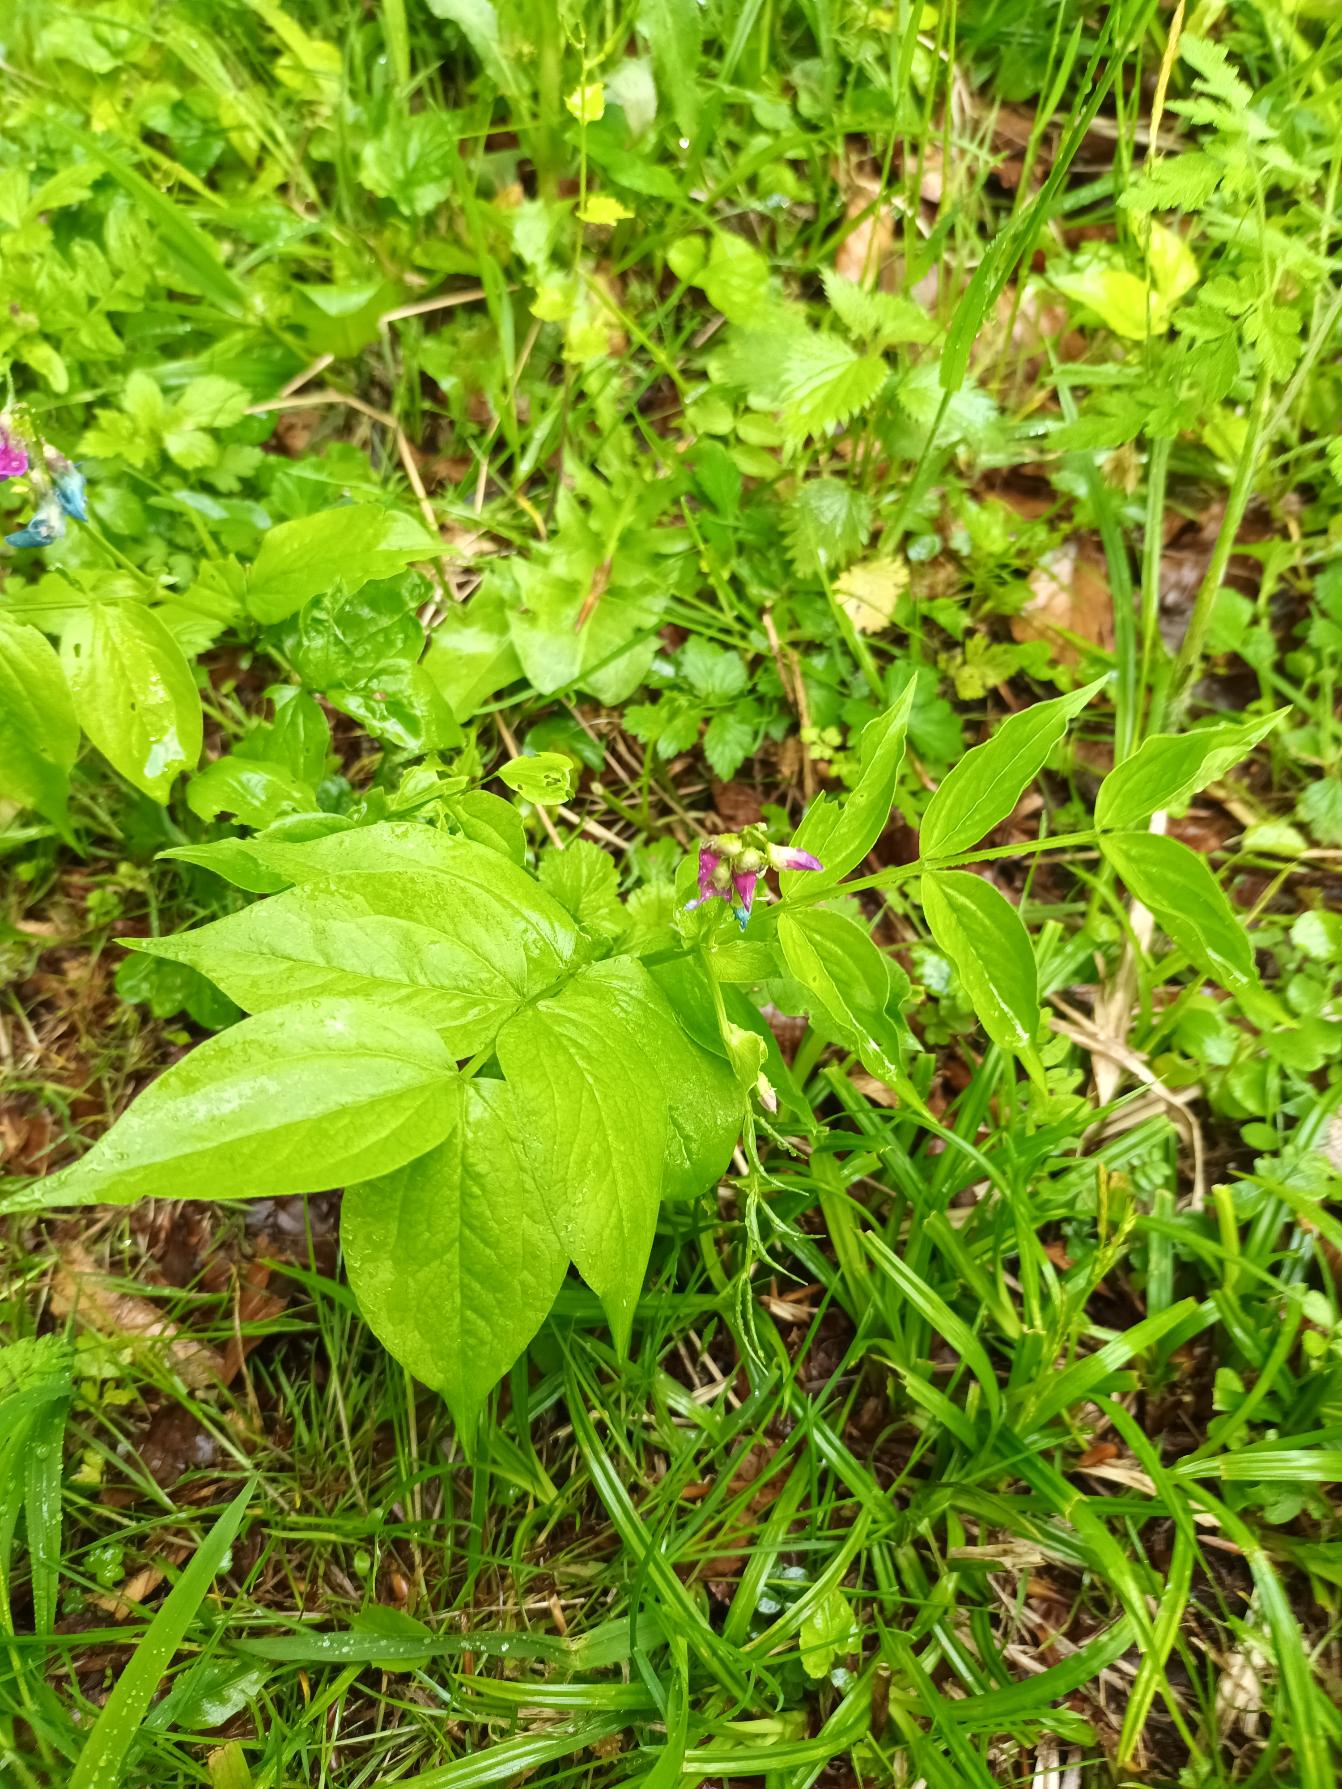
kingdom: Plantae
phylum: Tracheophyta
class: Magnoliopsida
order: Fabales
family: Fabaceae
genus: Lathyrus
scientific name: Lathyrus vernus
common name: Vår-fladbælg
